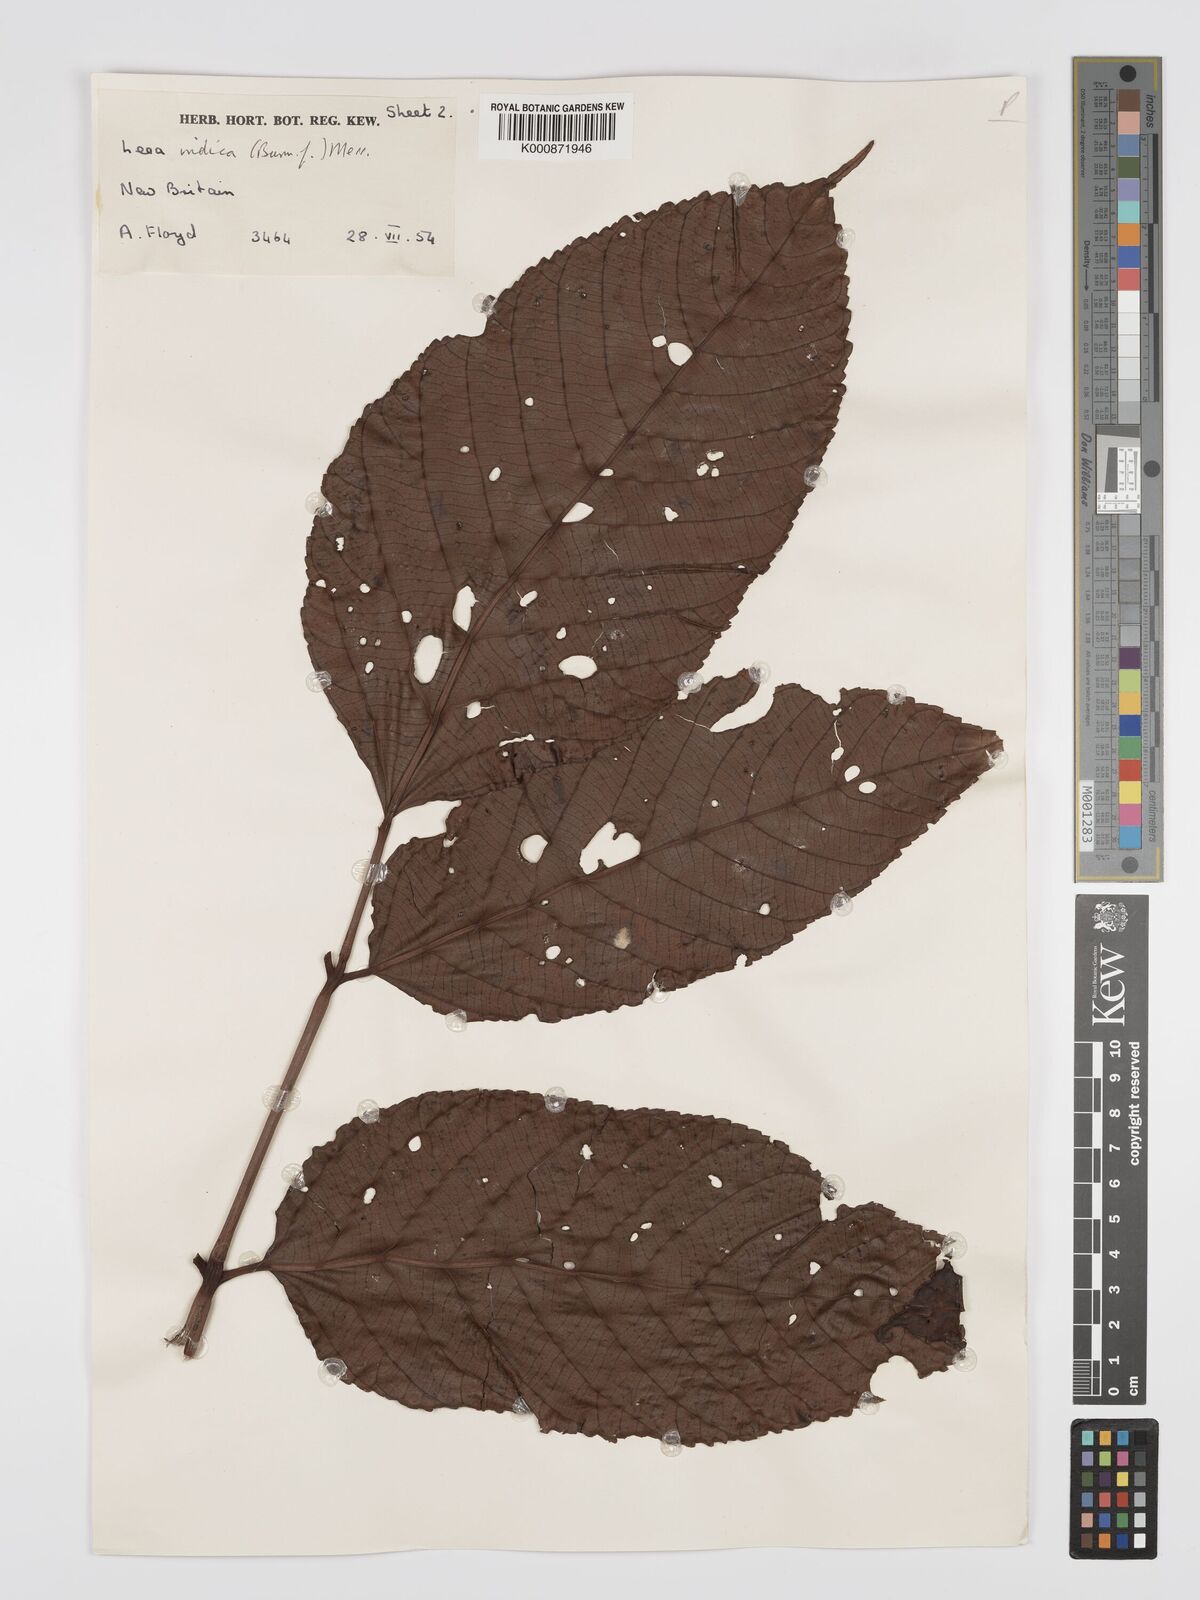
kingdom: Plantae
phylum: Tracheophyta
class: Magnoliopsida
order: Vitales
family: Vitaceae
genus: Leea
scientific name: Leea indica
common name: Bandicoot-berry
